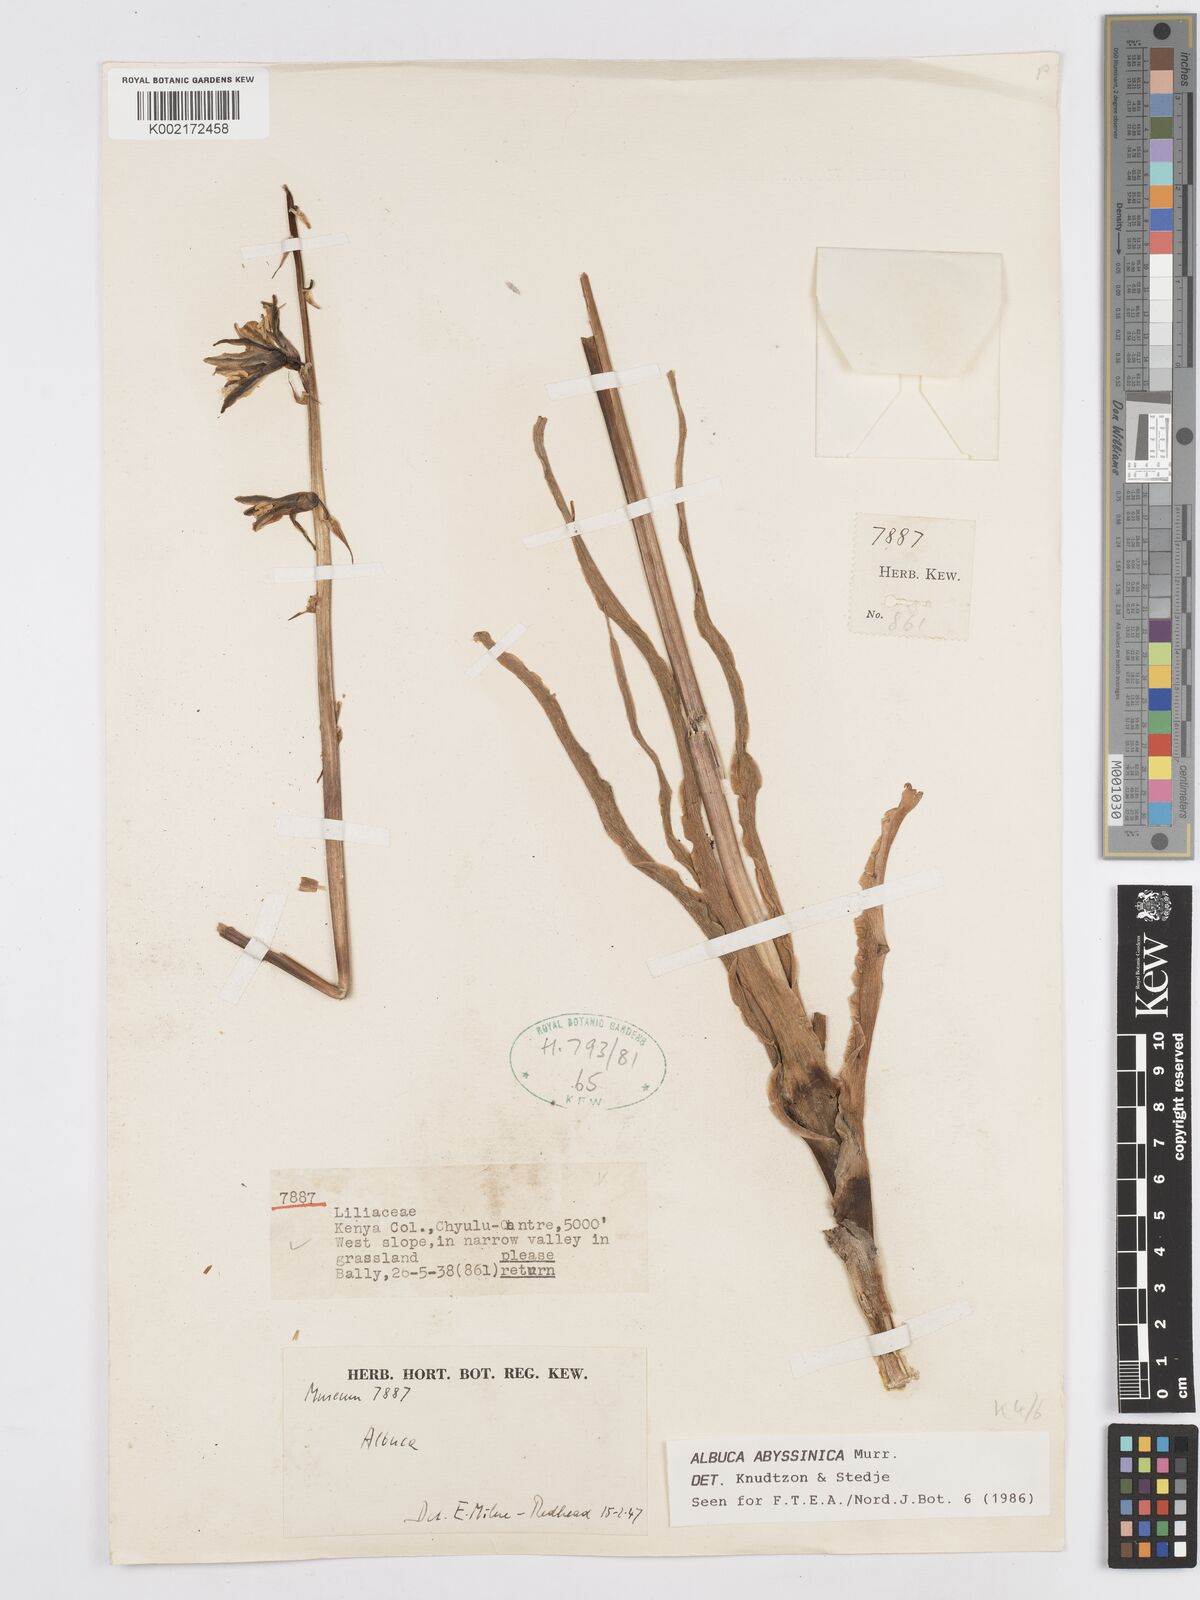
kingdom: Plantae
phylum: Tracheophyta
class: Liliopsida
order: Asparagales
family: Asparagaceae
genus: Albuca
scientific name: Albuca abyssinica
